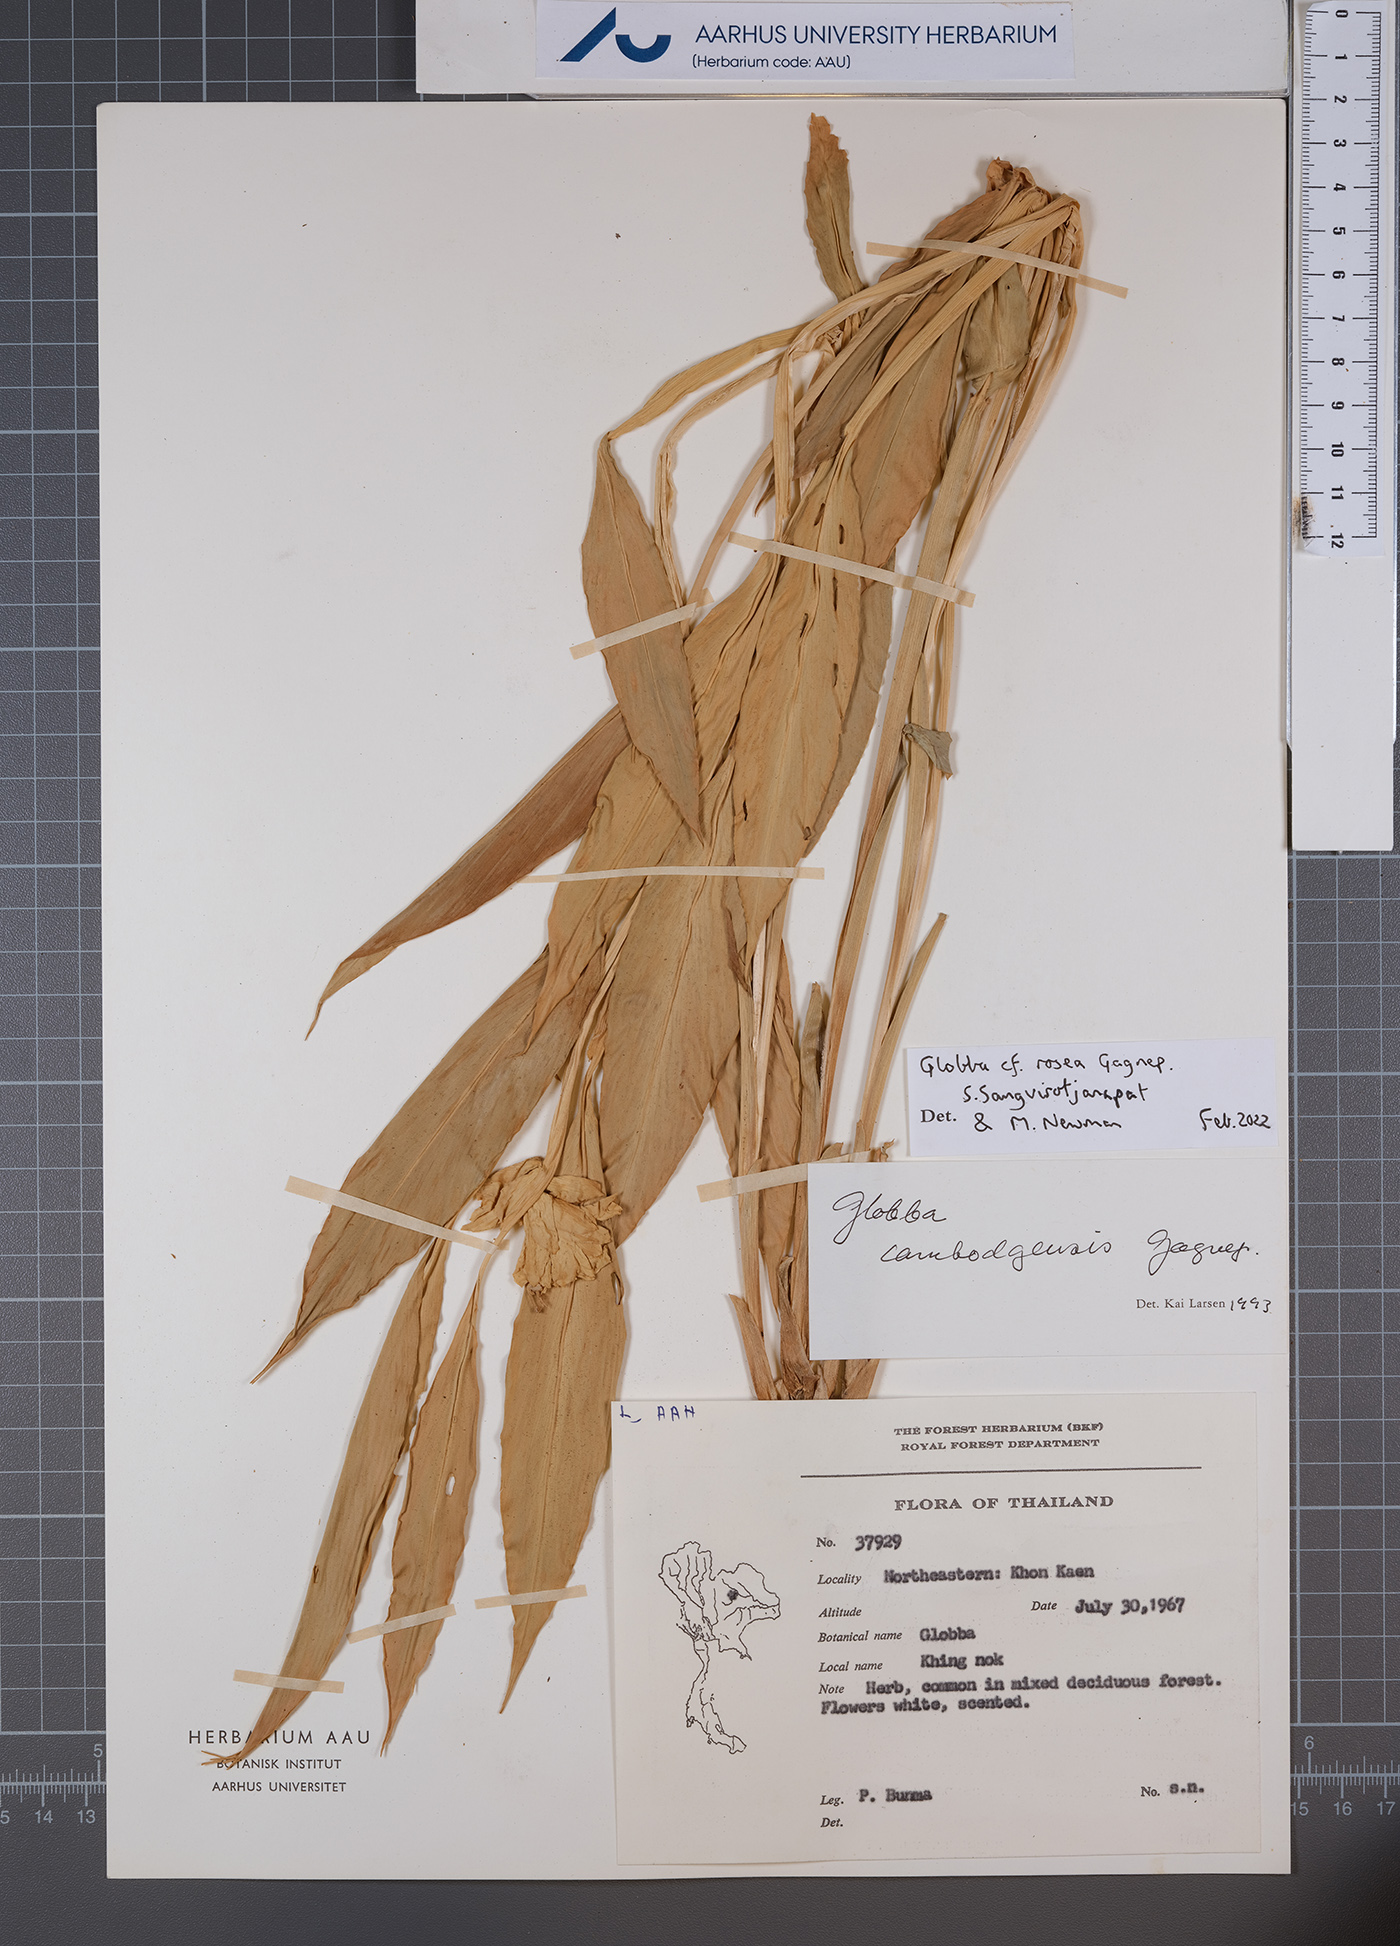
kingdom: Plantae
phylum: Tracheophyta
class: Liliopsida
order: Zingiberales
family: Zingiberaceae
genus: Globba
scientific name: Globba rosea
